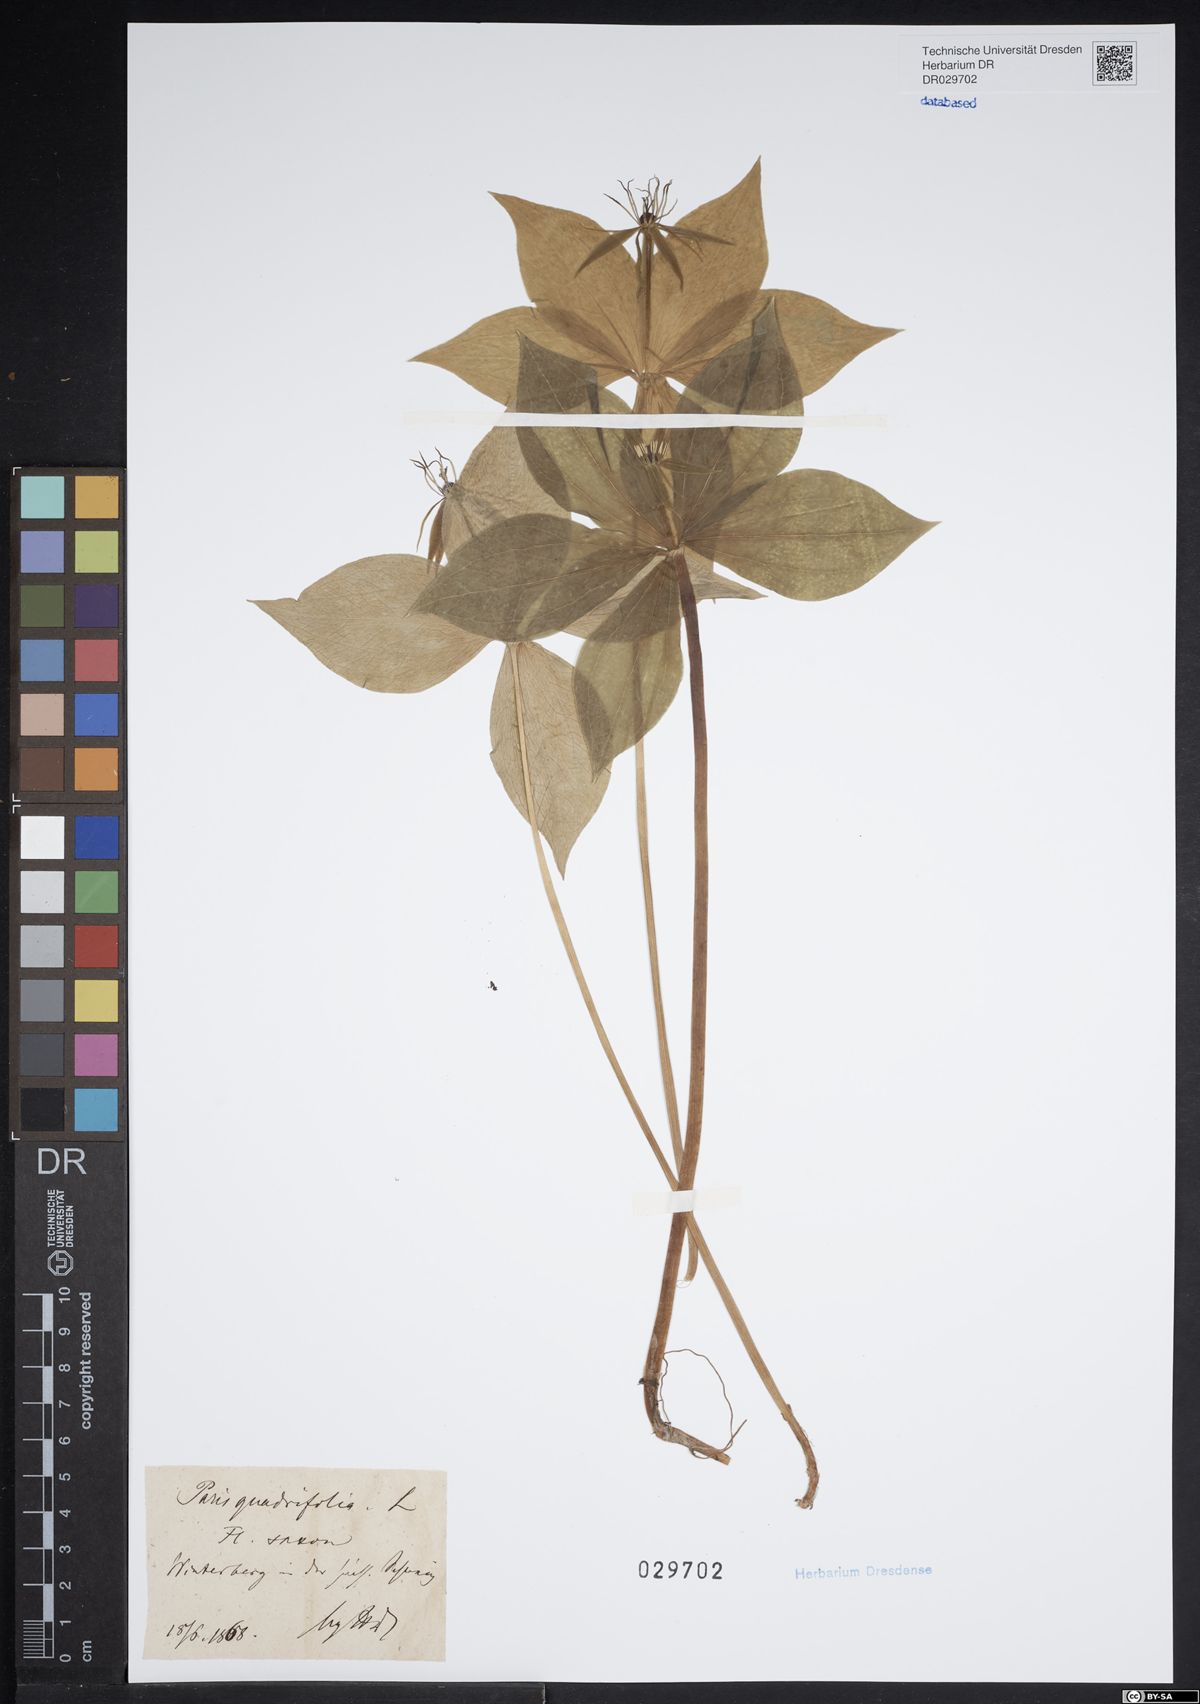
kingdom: Plantae
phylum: Tracheophyta
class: Liliopsida
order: Liliales
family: Melanthiaceae
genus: Paris
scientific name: Paris quadrifolia
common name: Herb-paris
